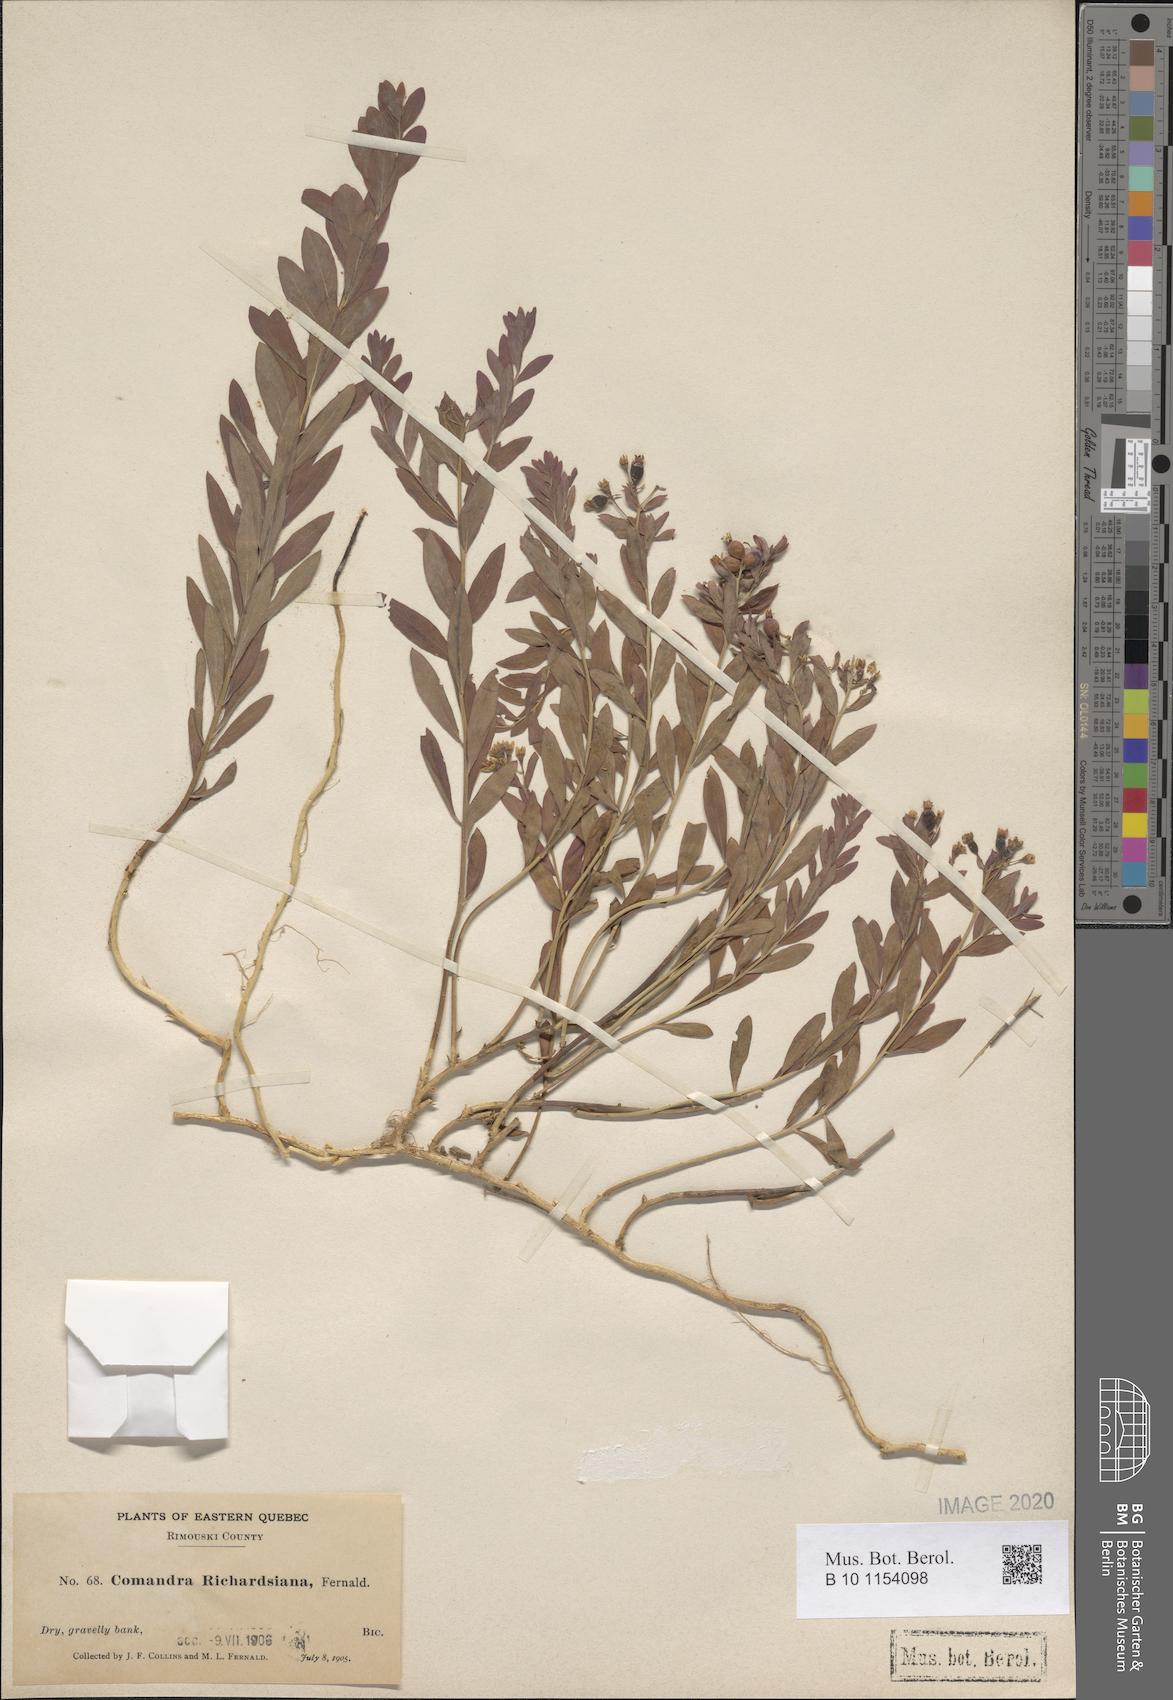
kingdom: Plantae
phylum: Tracheophyta
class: Magnoliopsida
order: Santalales
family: Comandraceae
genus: Comandra
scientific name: Comandra umbellata
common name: Bastard toadflax
